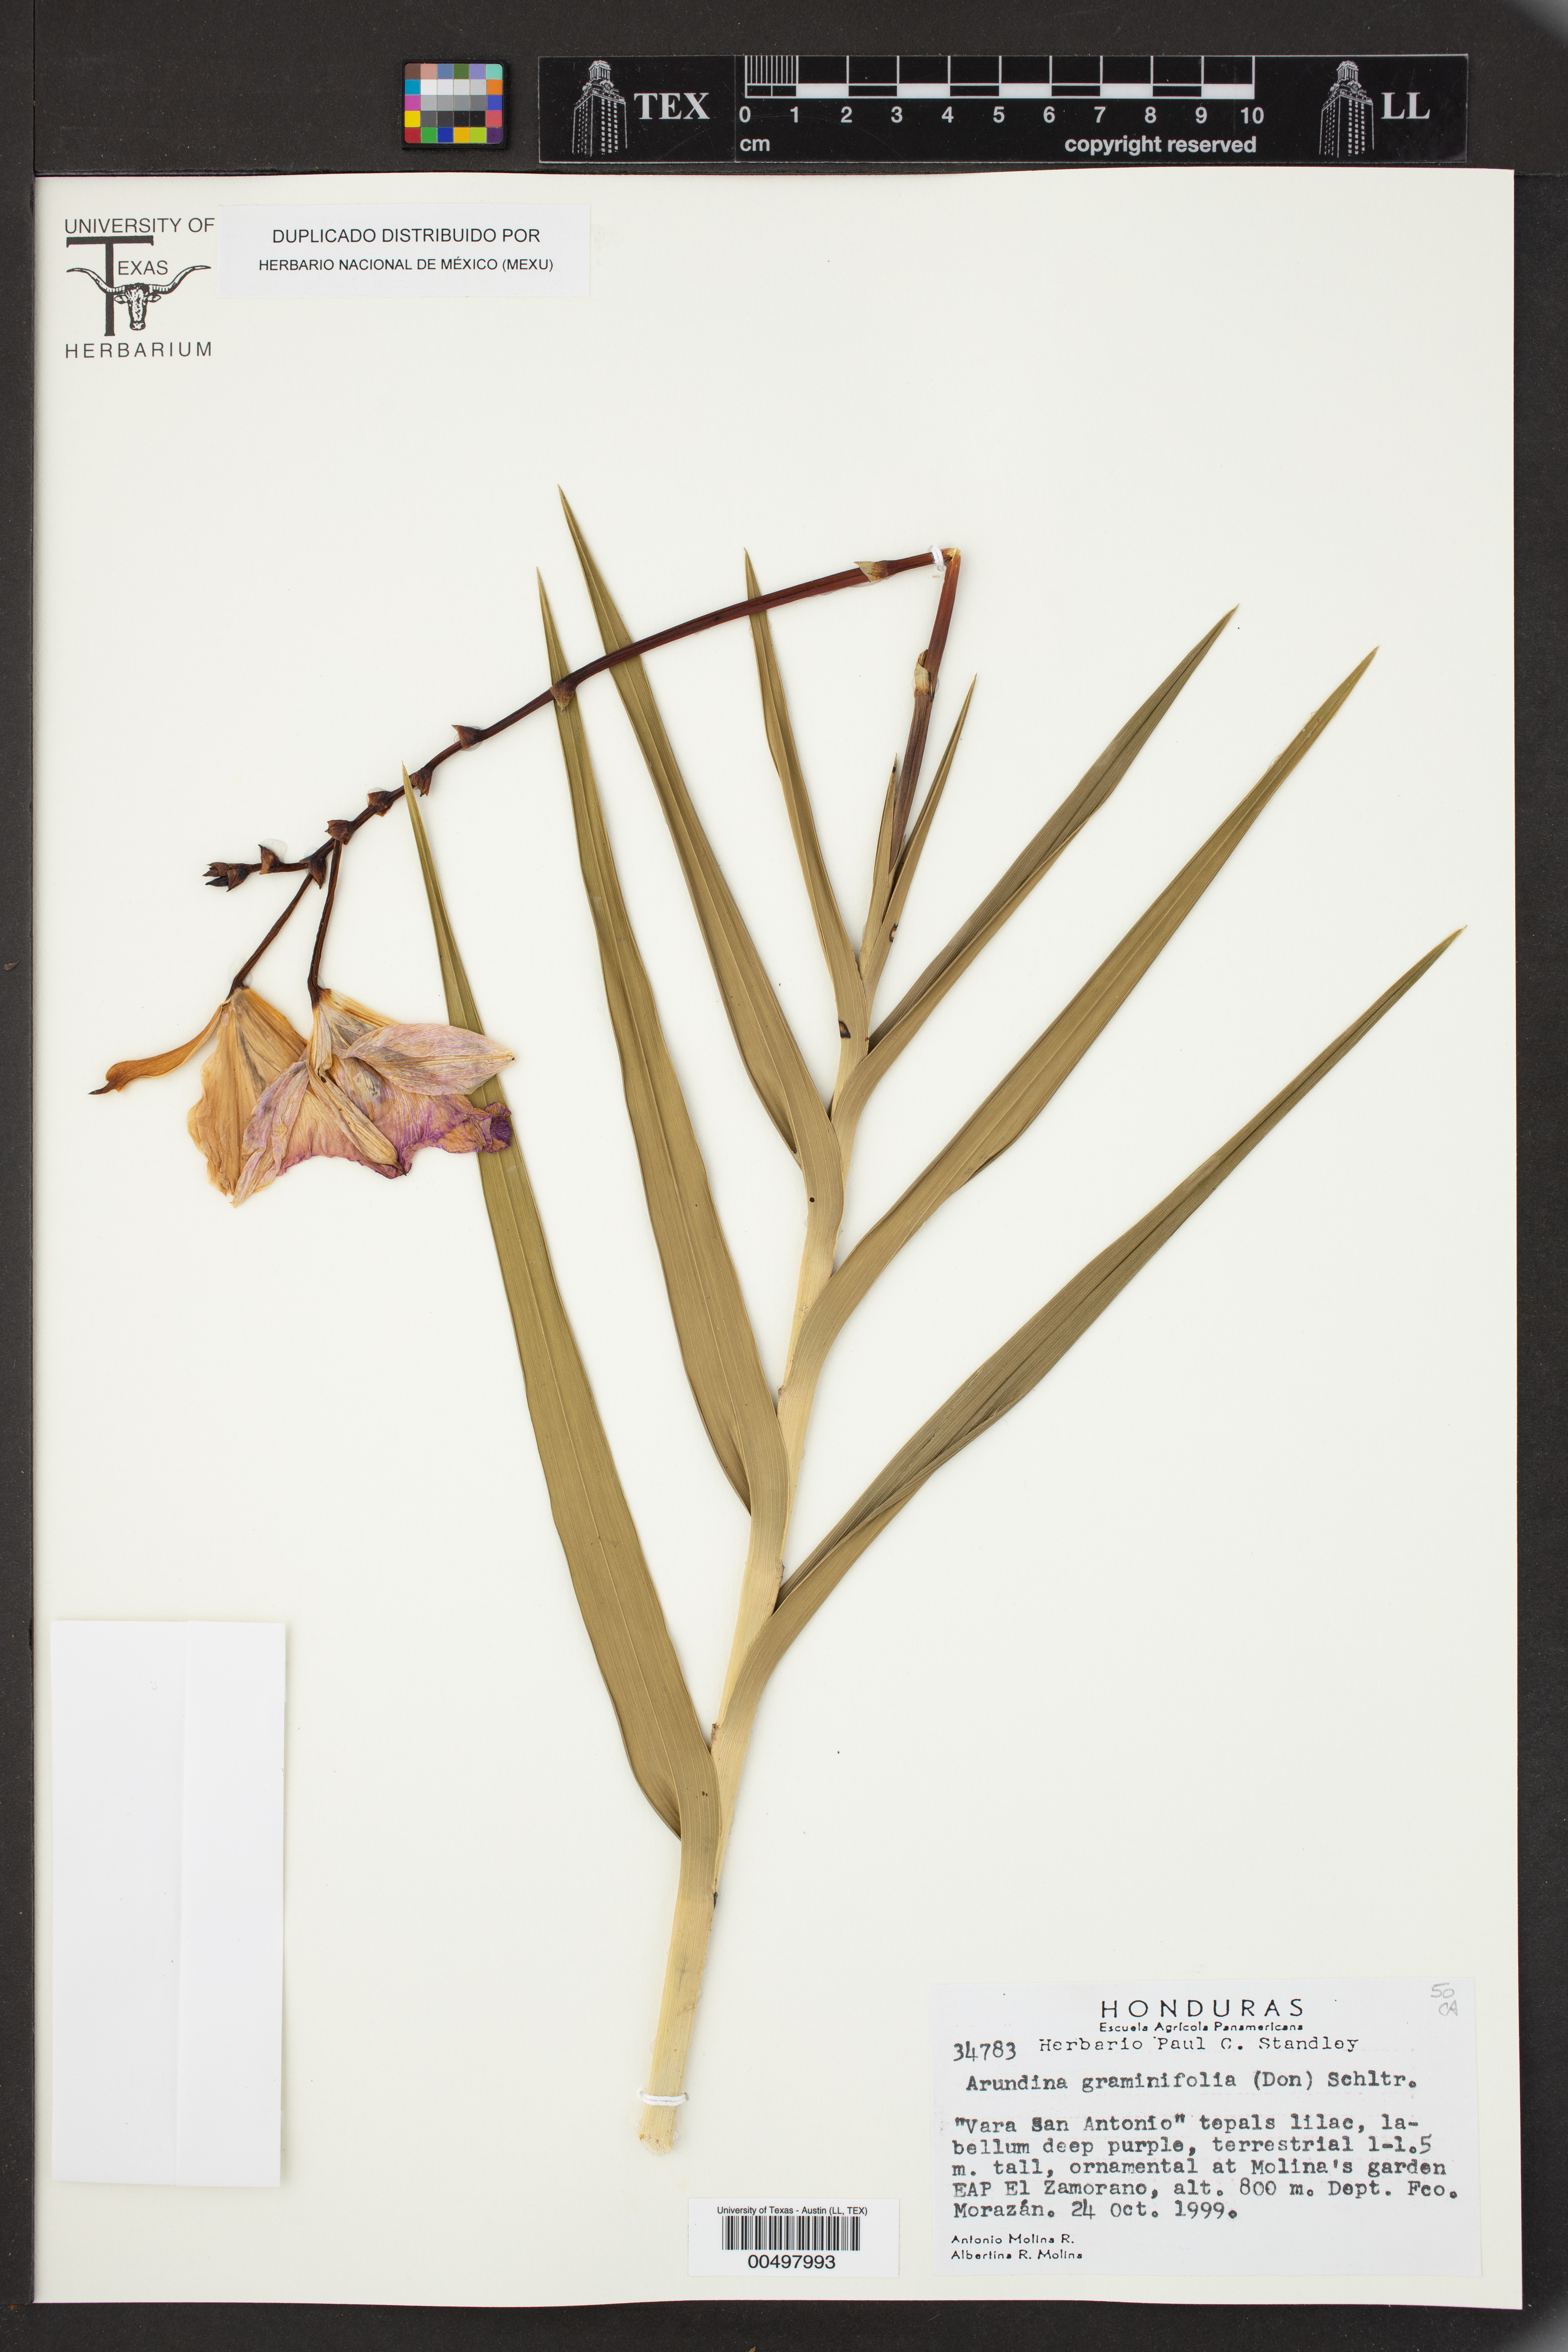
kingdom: Plantae
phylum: Tracheophyta
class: Liliopsida
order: Asparagales
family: Orchidaceae
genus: Arundina
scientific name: Arundina graminifolia
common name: Bamboo orchid
